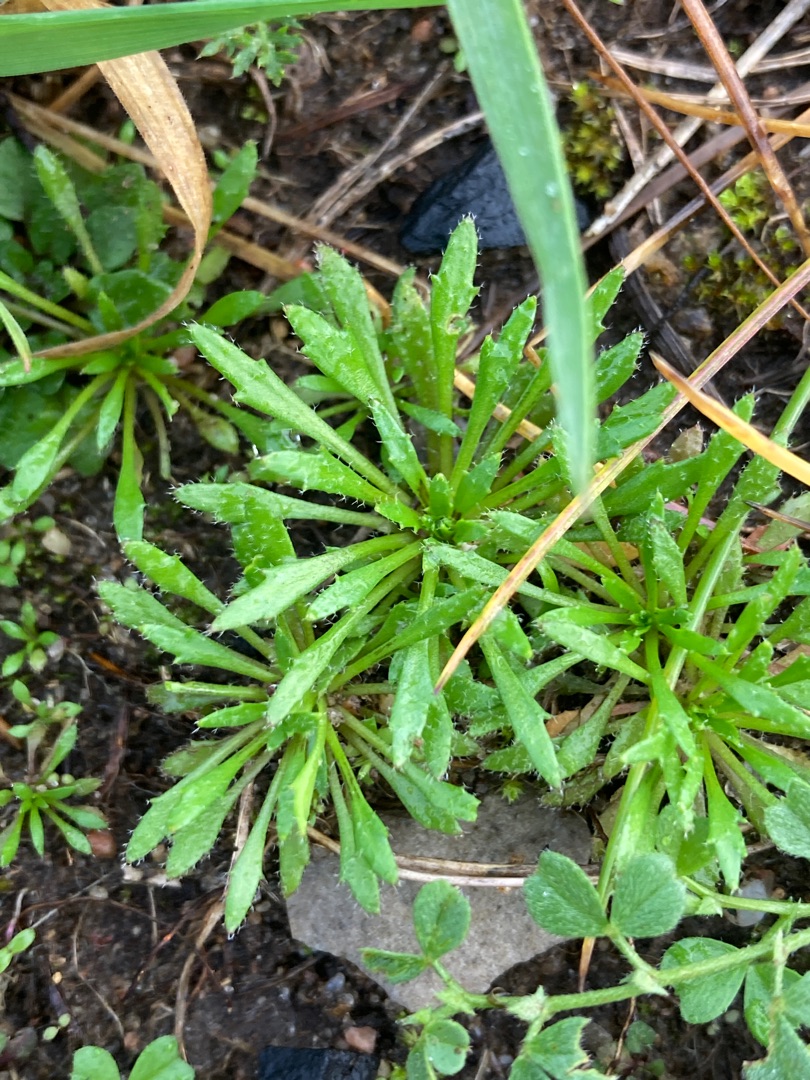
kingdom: Plantae
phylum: Tracheophyta
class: Magnoliopsida
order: Brassicales
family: Brassicaceae
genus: Draba
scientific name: Draba verna
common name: Vår-gæslingeblomst
